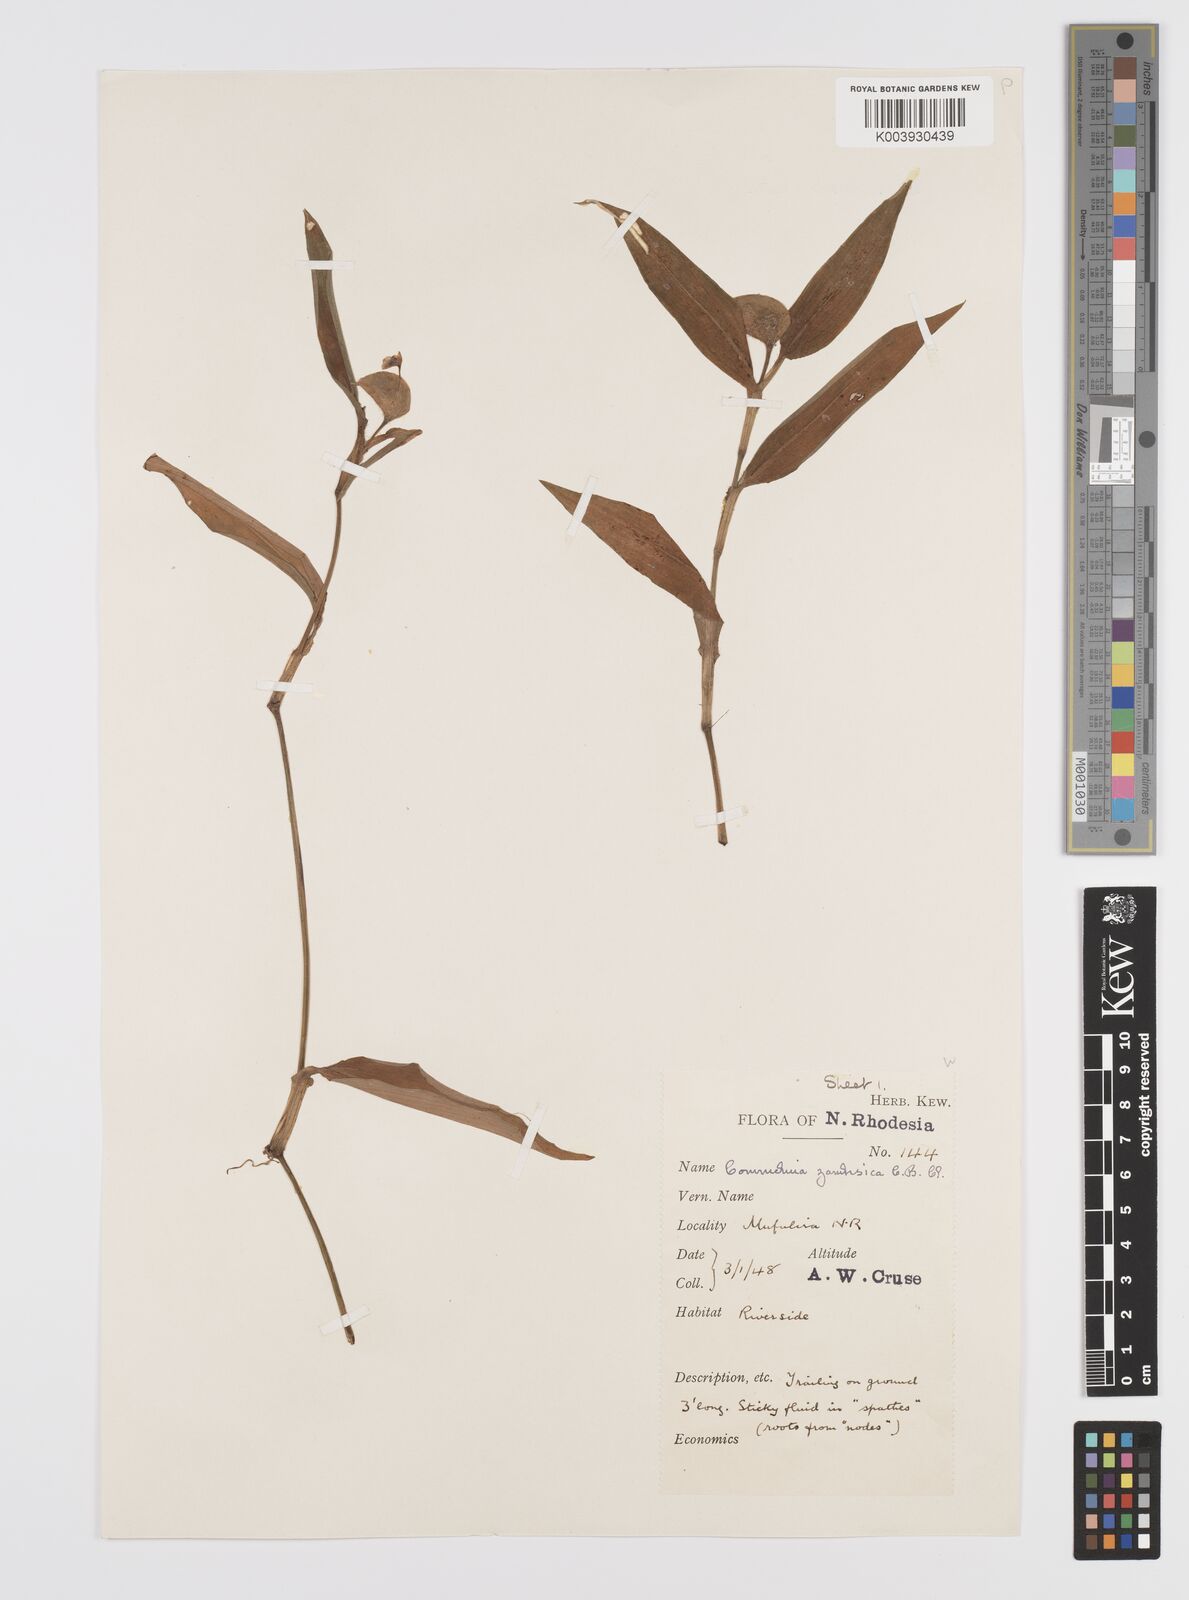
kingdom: Plantae
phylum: Tracheophyta
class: Liliopsida
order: Commelinales
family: Commelinaceae
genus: Commelina
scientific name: Commelina zambesica
